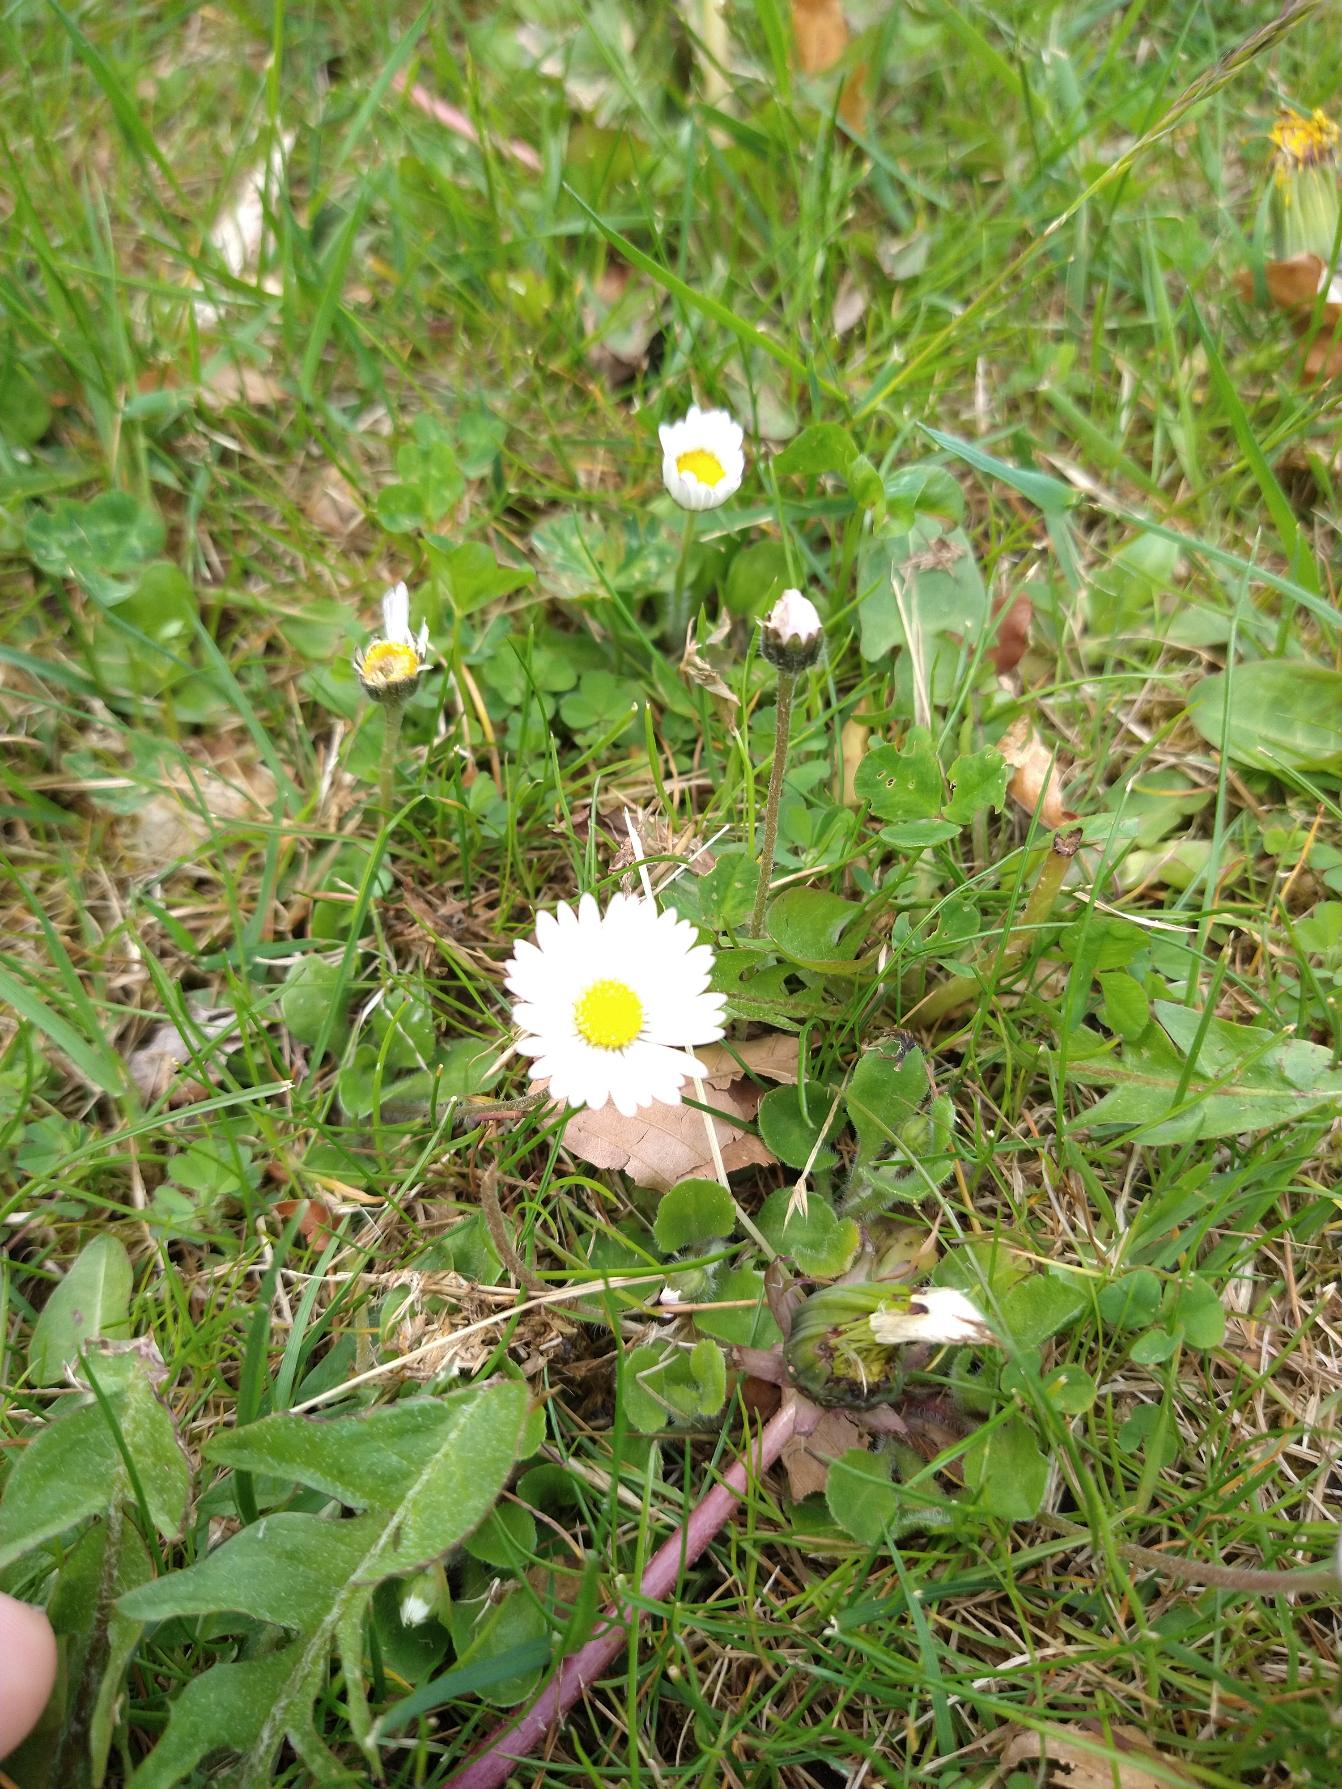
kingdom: Plantae
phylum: Tracheophyta
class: Magnoliopsida
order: Asterales
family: Asteraceae
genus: Bellis
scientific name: Bellis perennis
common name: Tusindfryd
